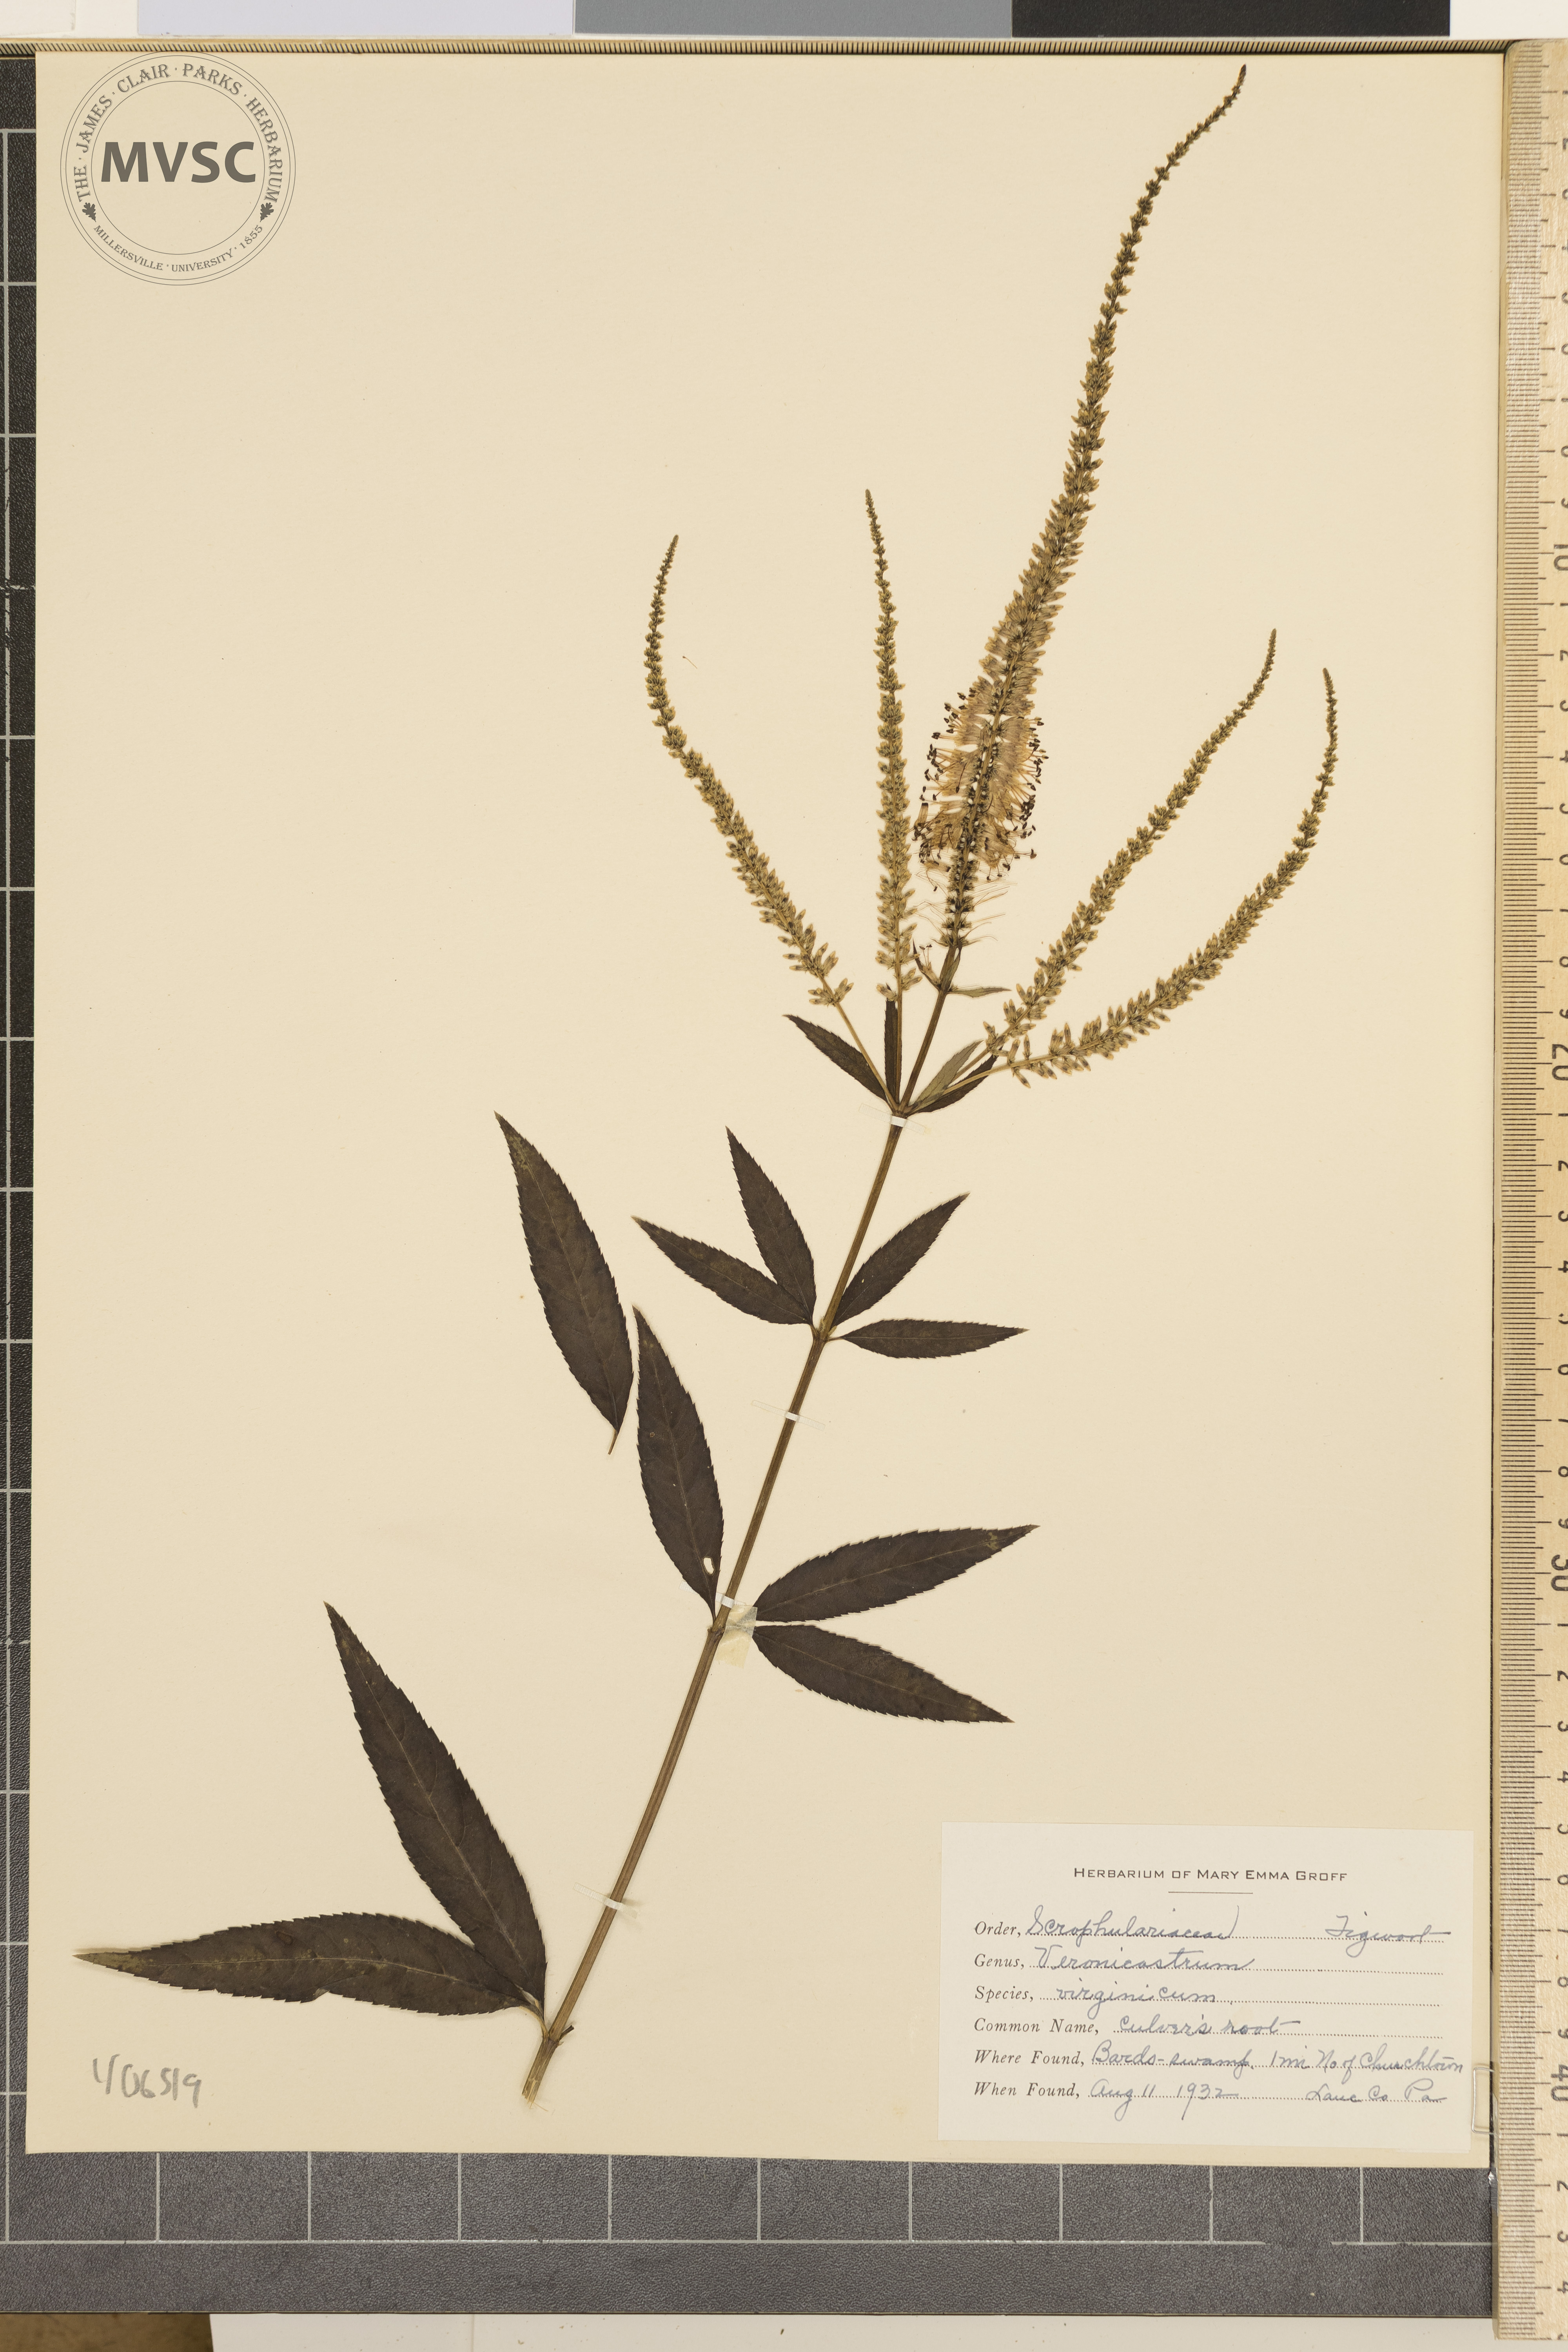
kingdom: Plantae
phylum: Tracheophyta
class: Magnoliopsida
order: Lamiales
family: Plantaginaceae
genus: Veronicastrum
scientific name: Veronicastrum virginicum
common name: Culver's root
